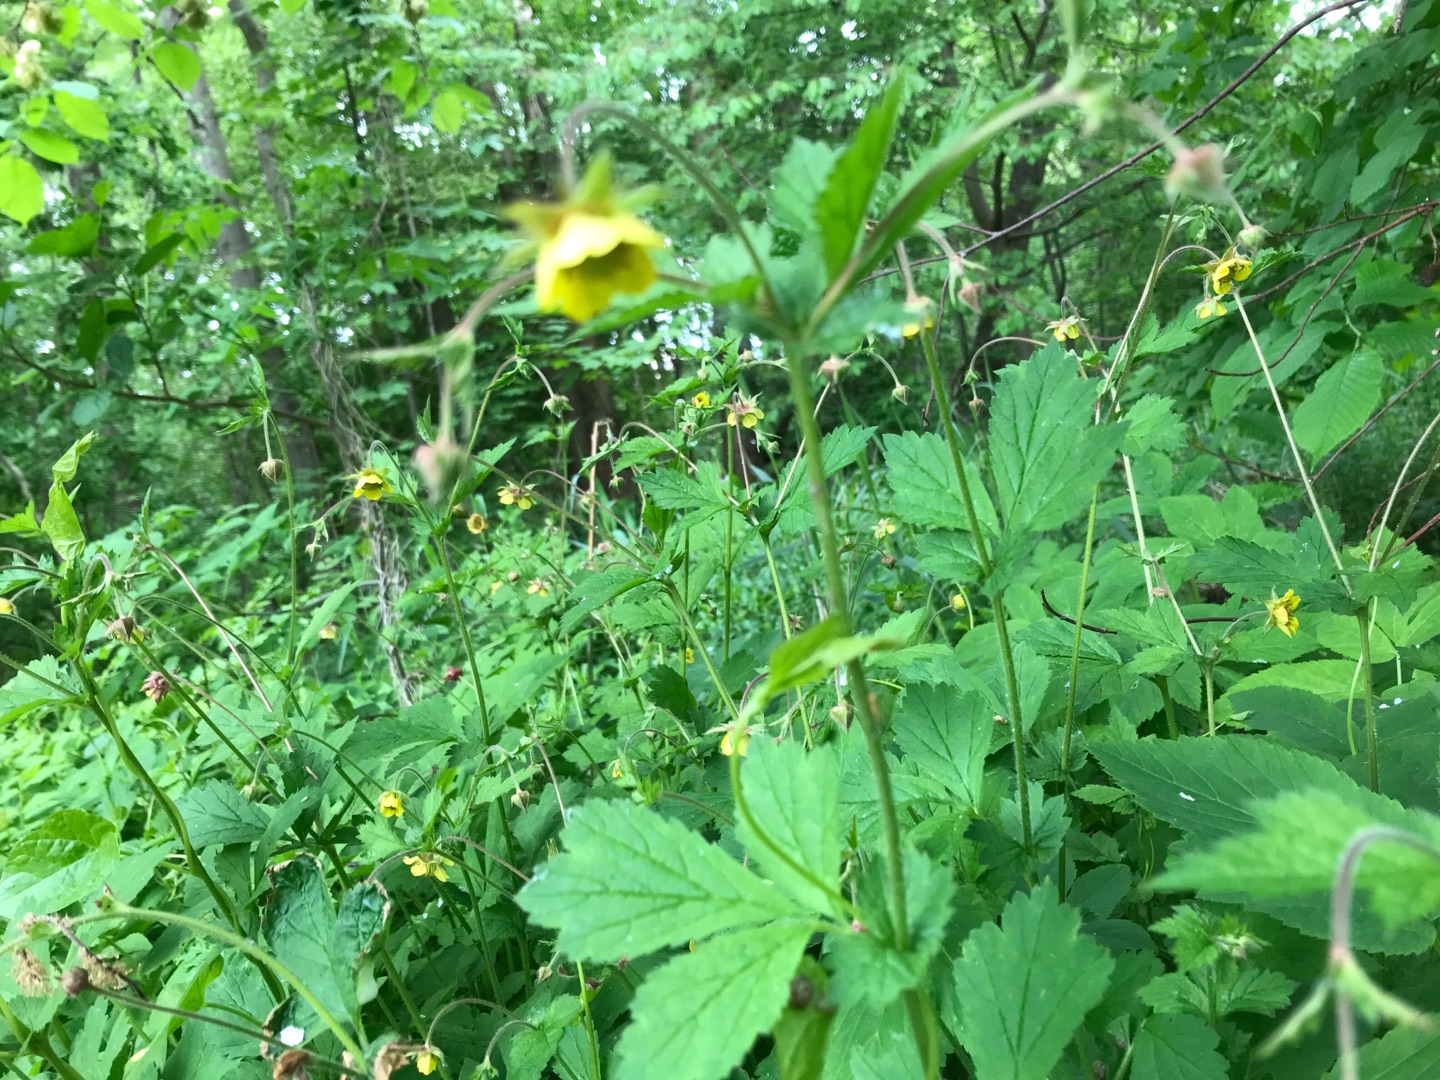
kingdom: Plantae
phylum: Tracheophyta
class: Magnoliopsida
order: Rosales
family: Rosaceae
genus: Geum
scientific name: Geum urbanum
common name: Feber-nellikerod
